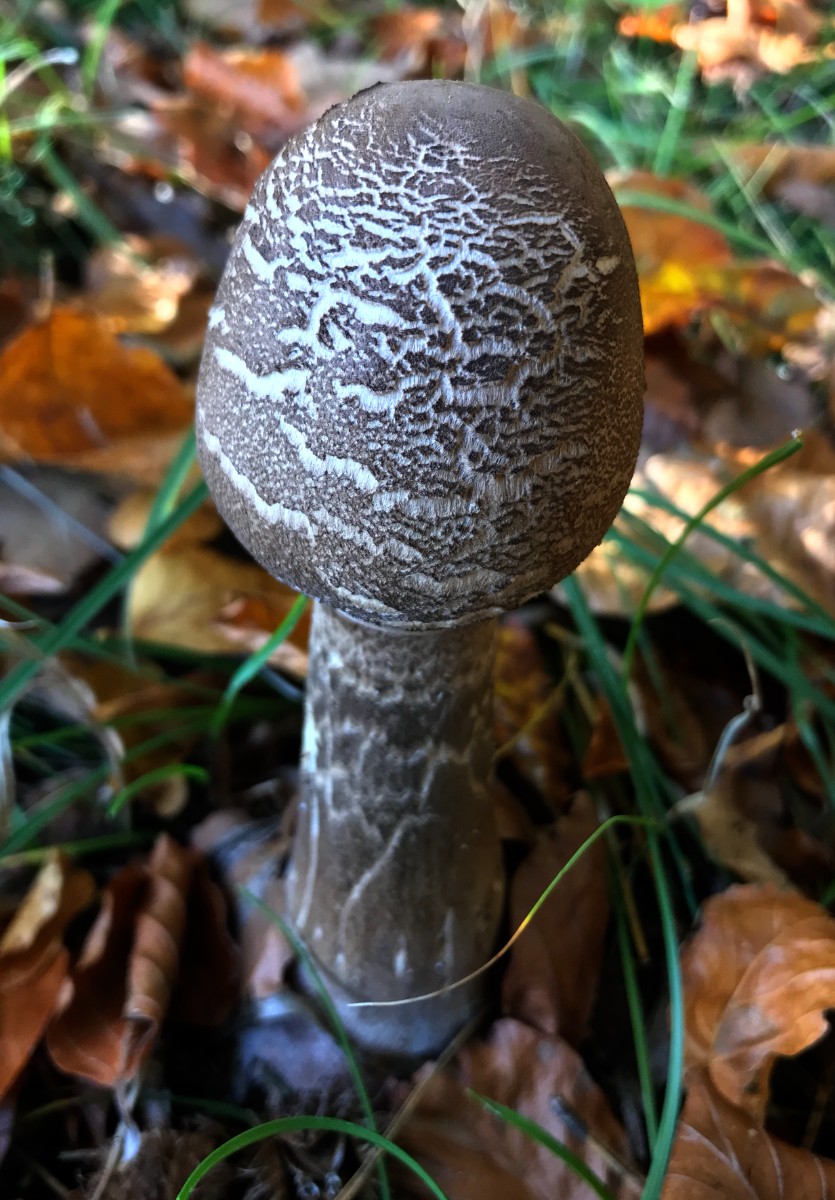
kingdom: Fungi
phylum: Basidiomycota
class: Agaricomycetes
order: Agaricales
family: Agaricaceae
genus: Macrolepiota
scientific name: Macrolepiota procera
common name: stor kæmpeparasolhat
